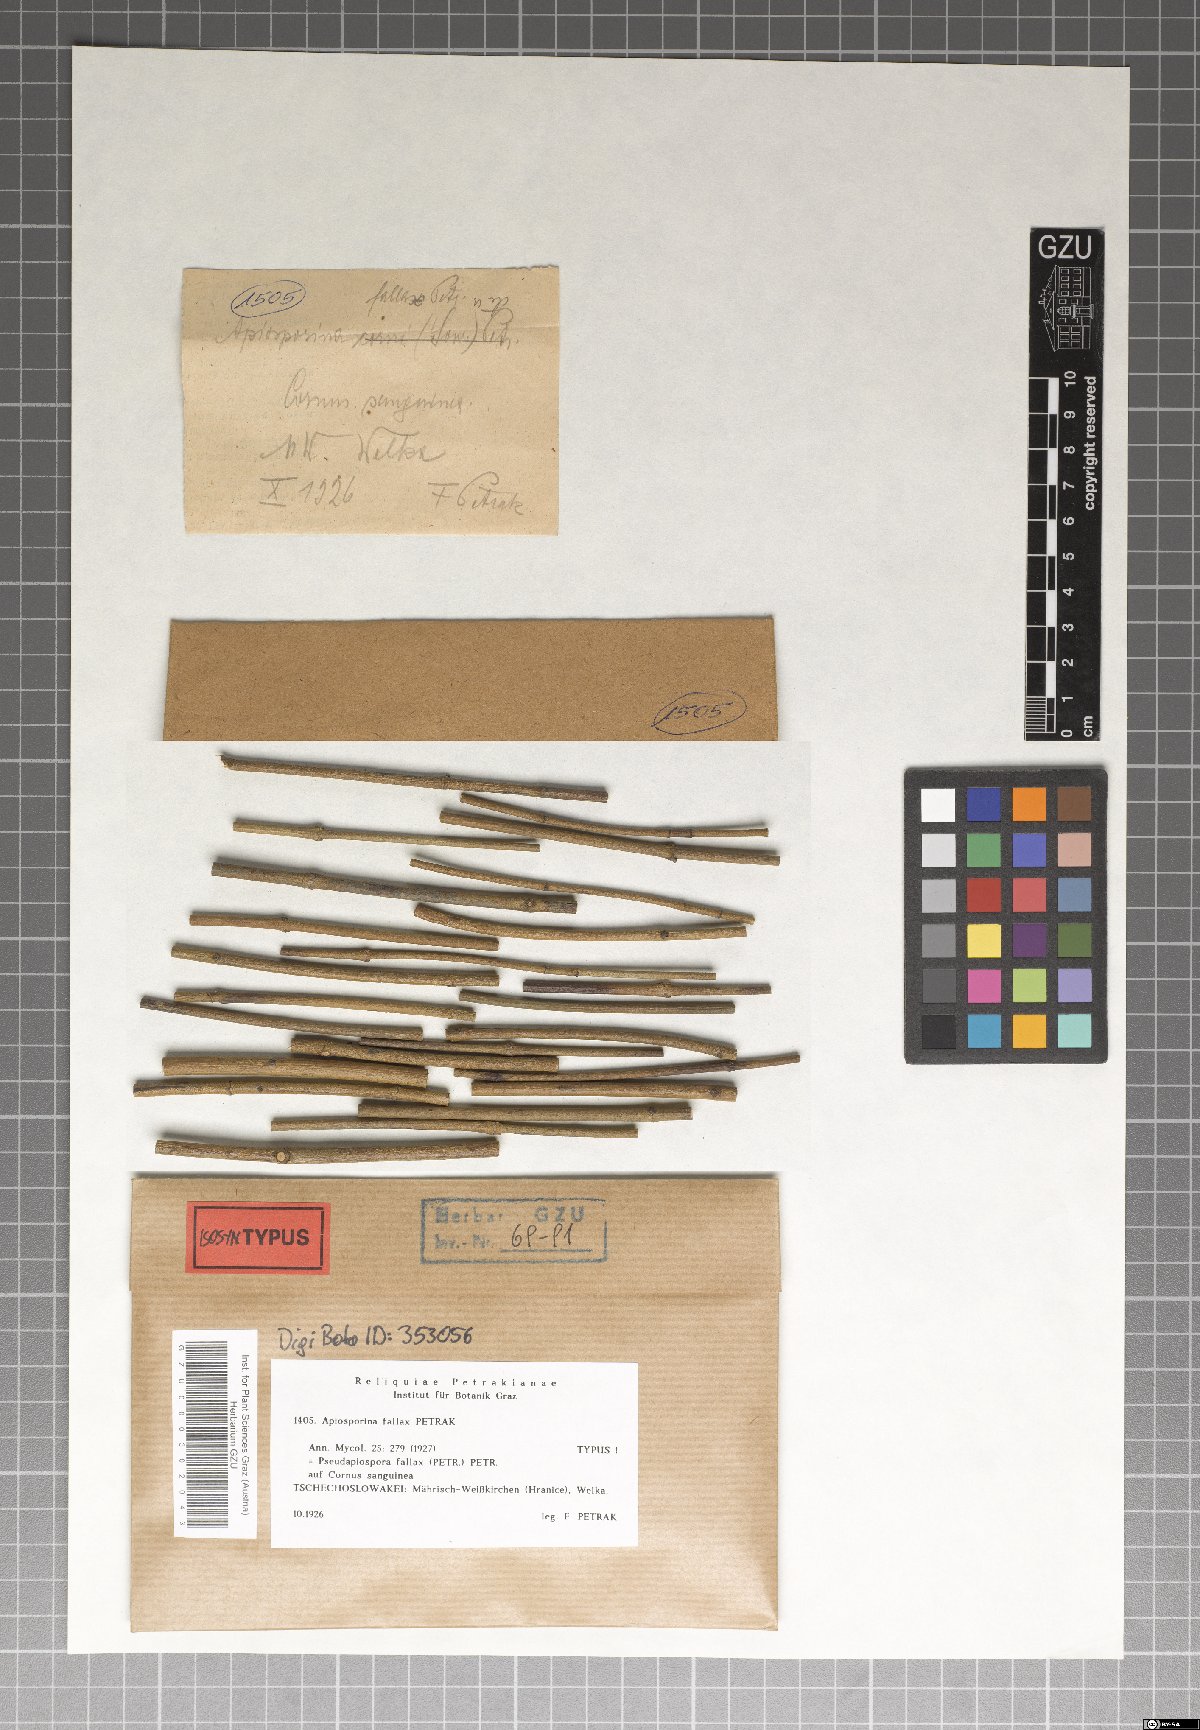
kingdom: Fungi
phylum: Ascomycota
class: Sordariomycetes
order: Xylariales
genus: Basiseptospora
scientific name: Basiseptospora fallax
